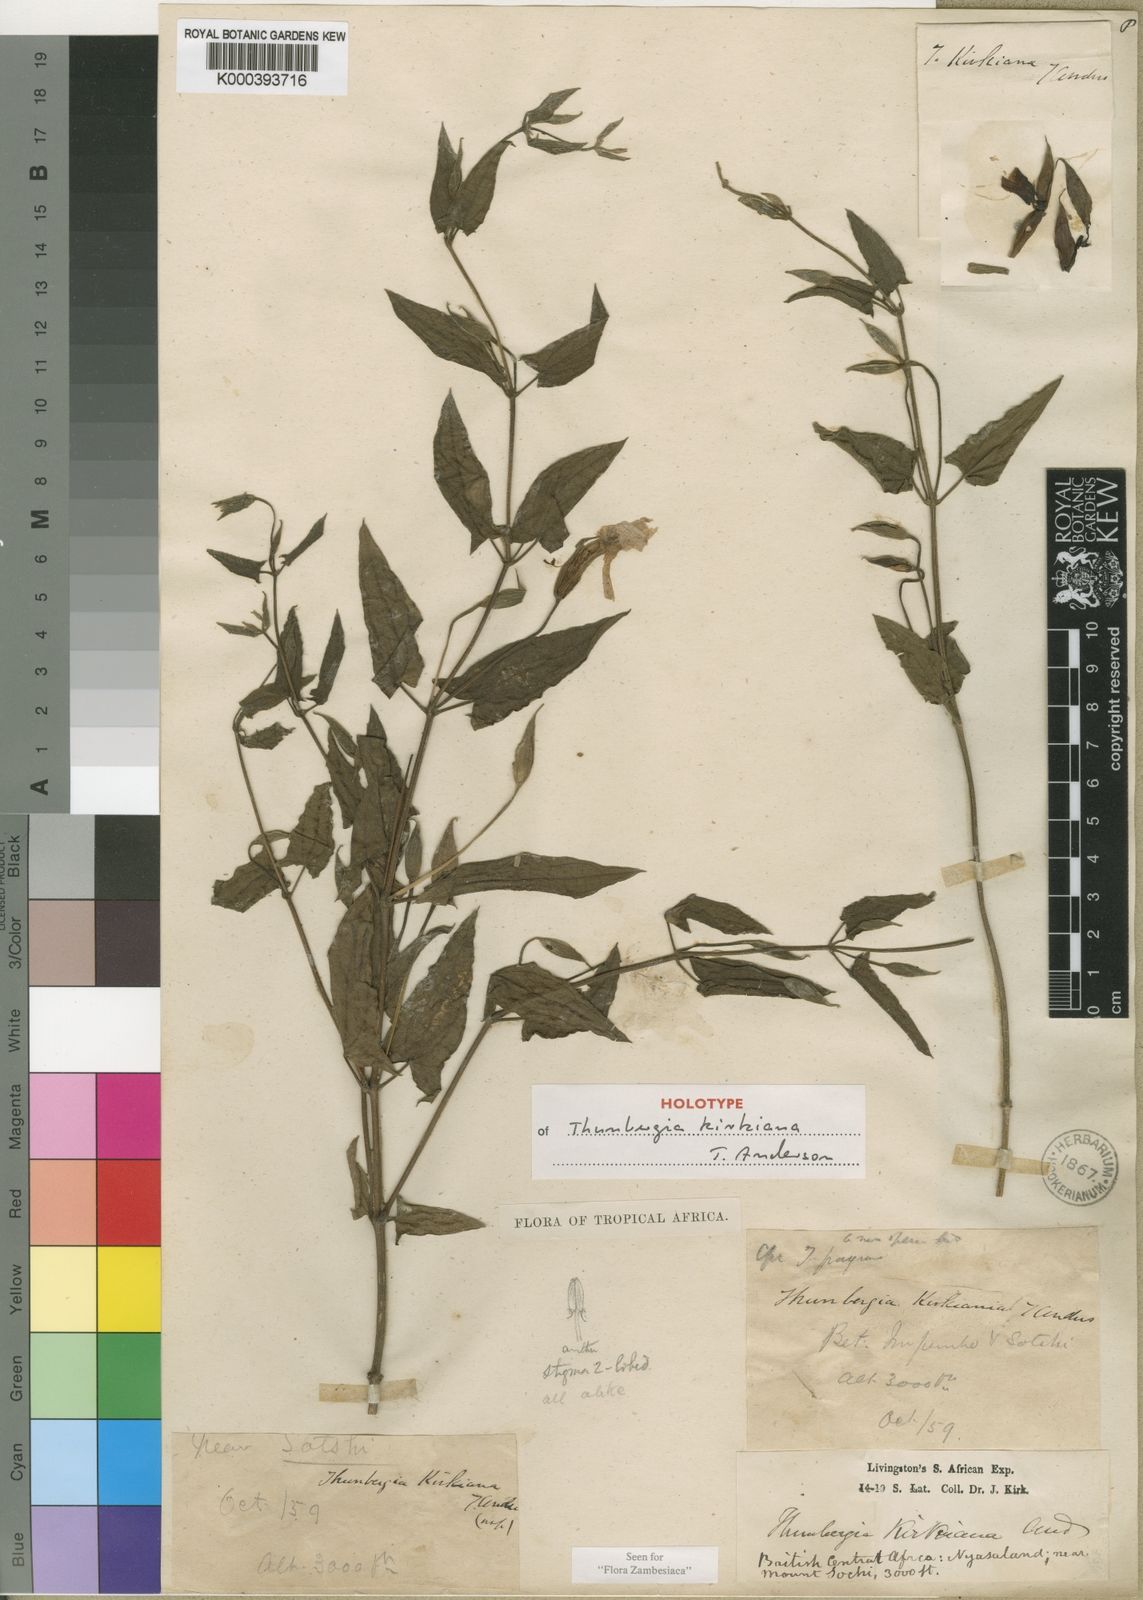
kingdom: Plantae
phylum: Tracheophyta
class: Magnoliopsida
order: Lamiales
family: Acanthaceae
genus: Thunbergia
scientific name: Thunbergia kirkiana
